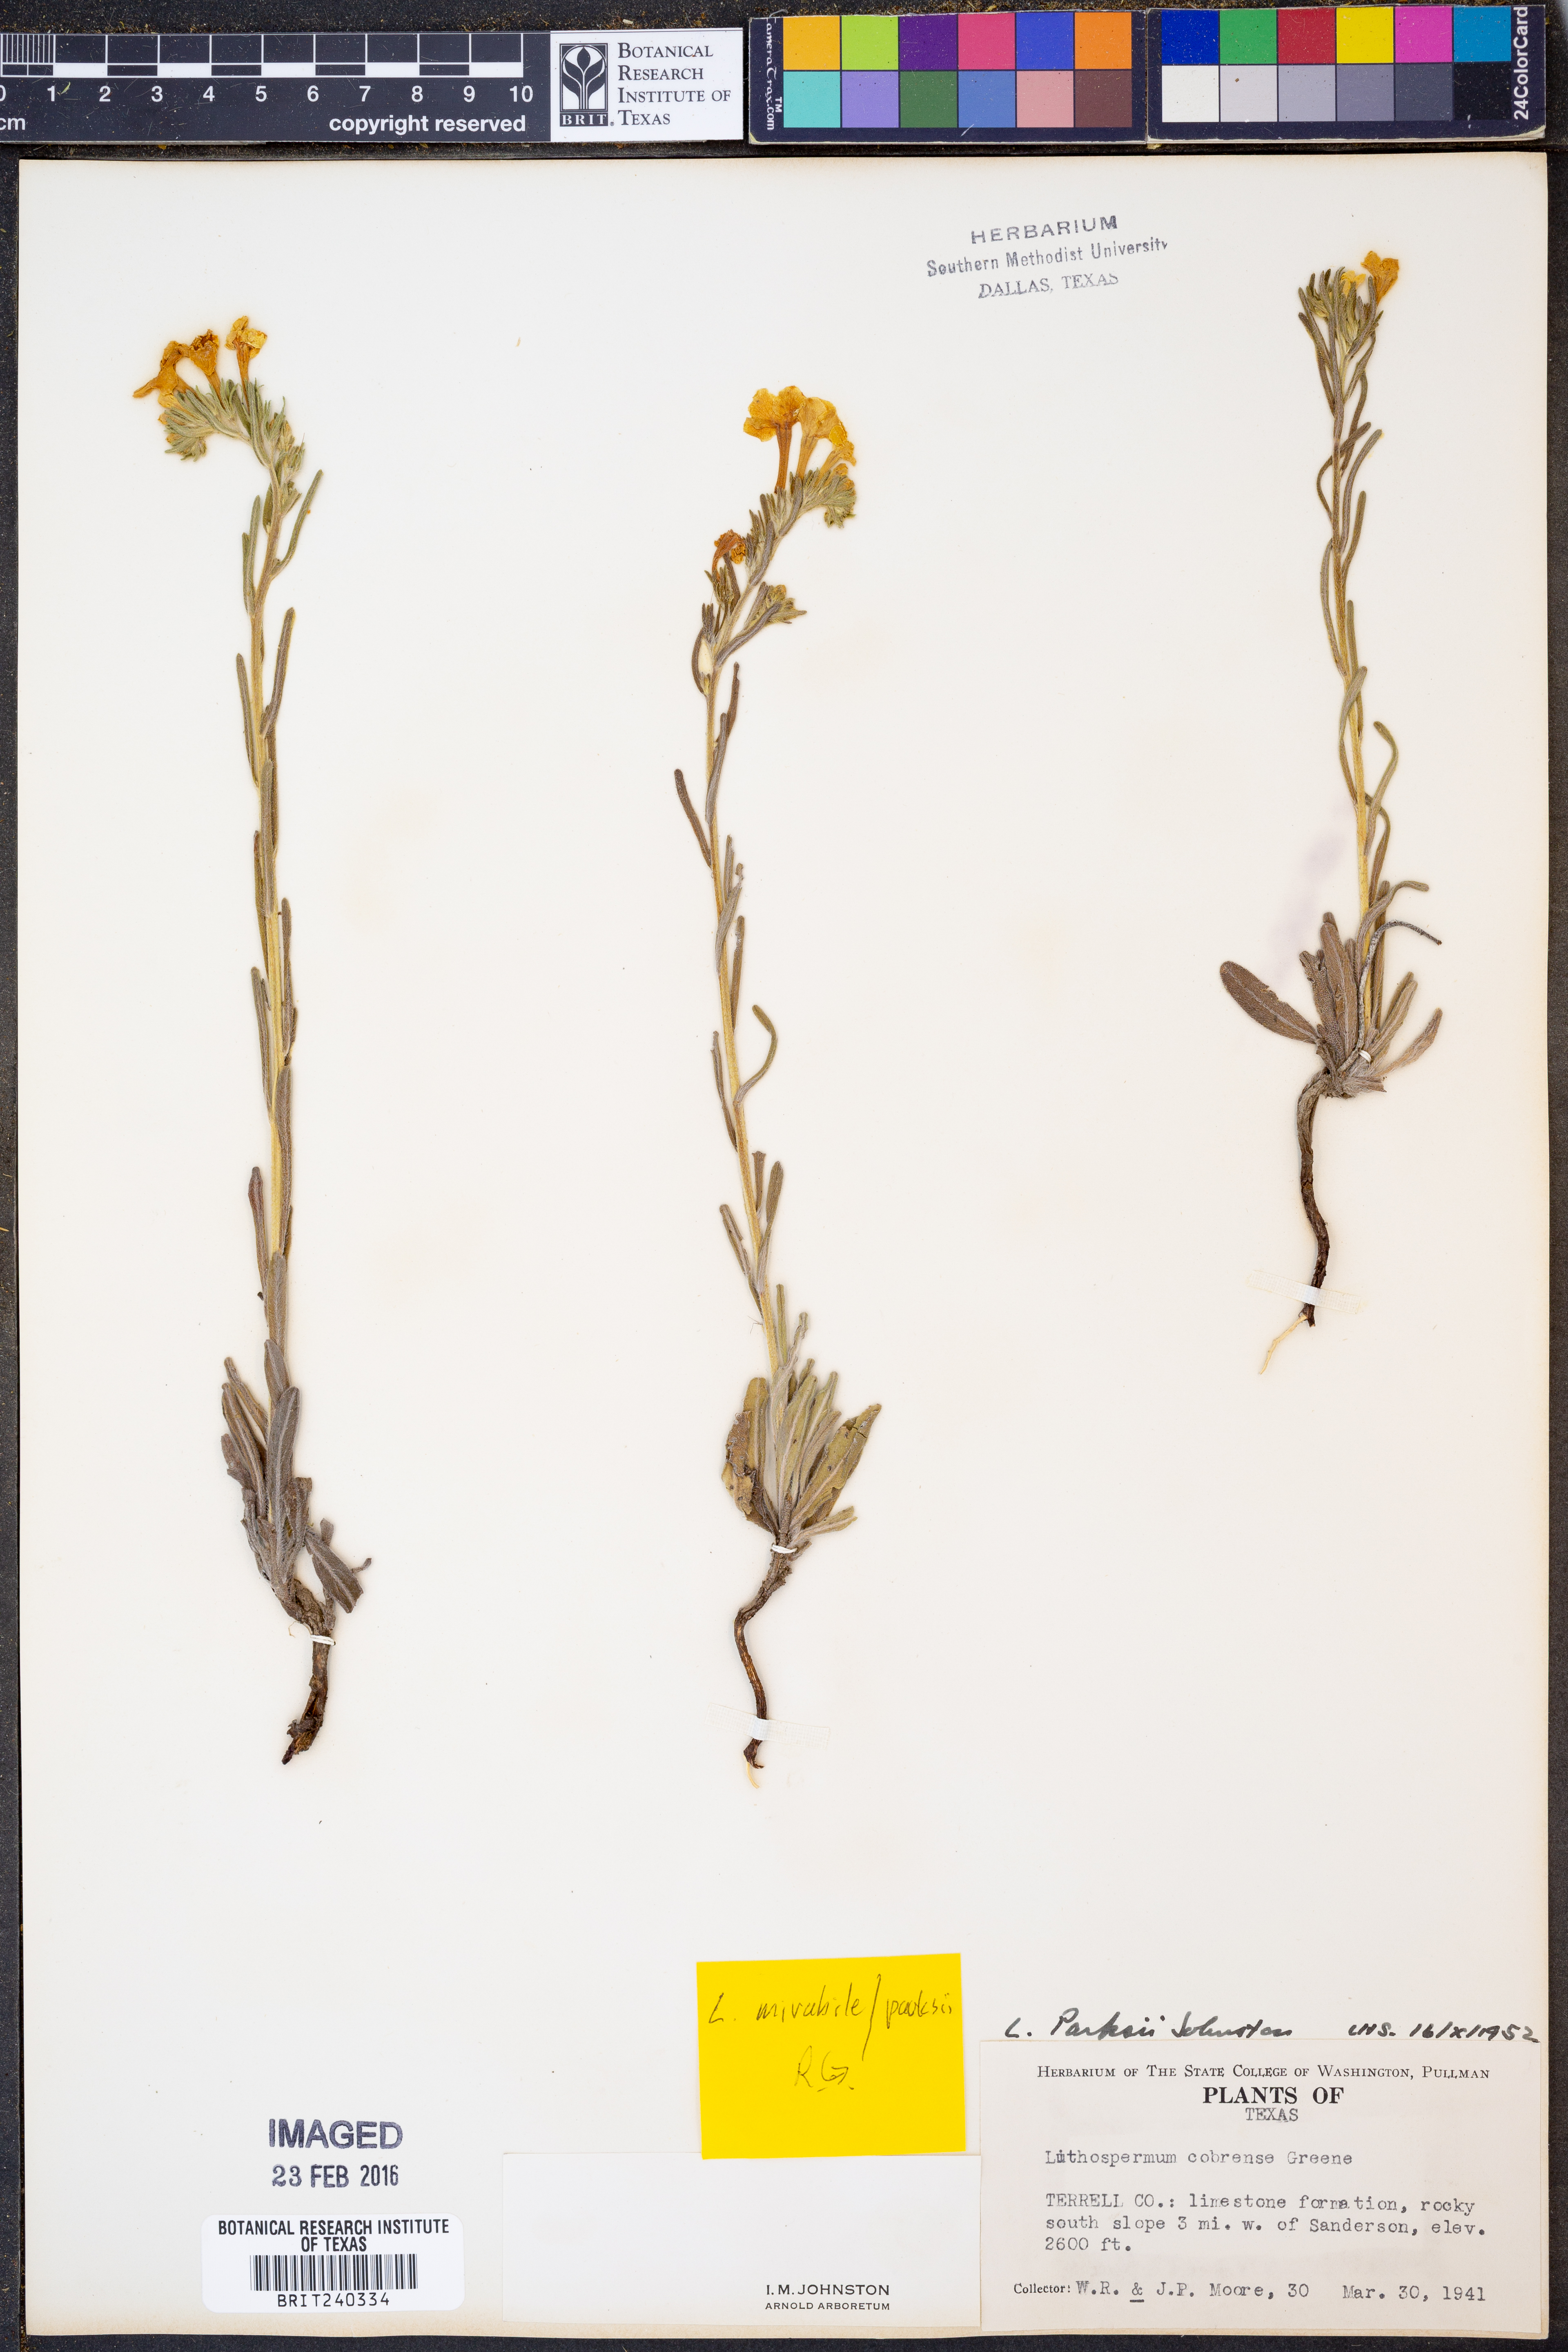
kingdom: Plantae
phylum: Tracheophyta
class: Magnoliopsida
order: Boraginales
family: Boraginaceae
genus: Lithospermum
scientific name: Lithospermum mirabile
